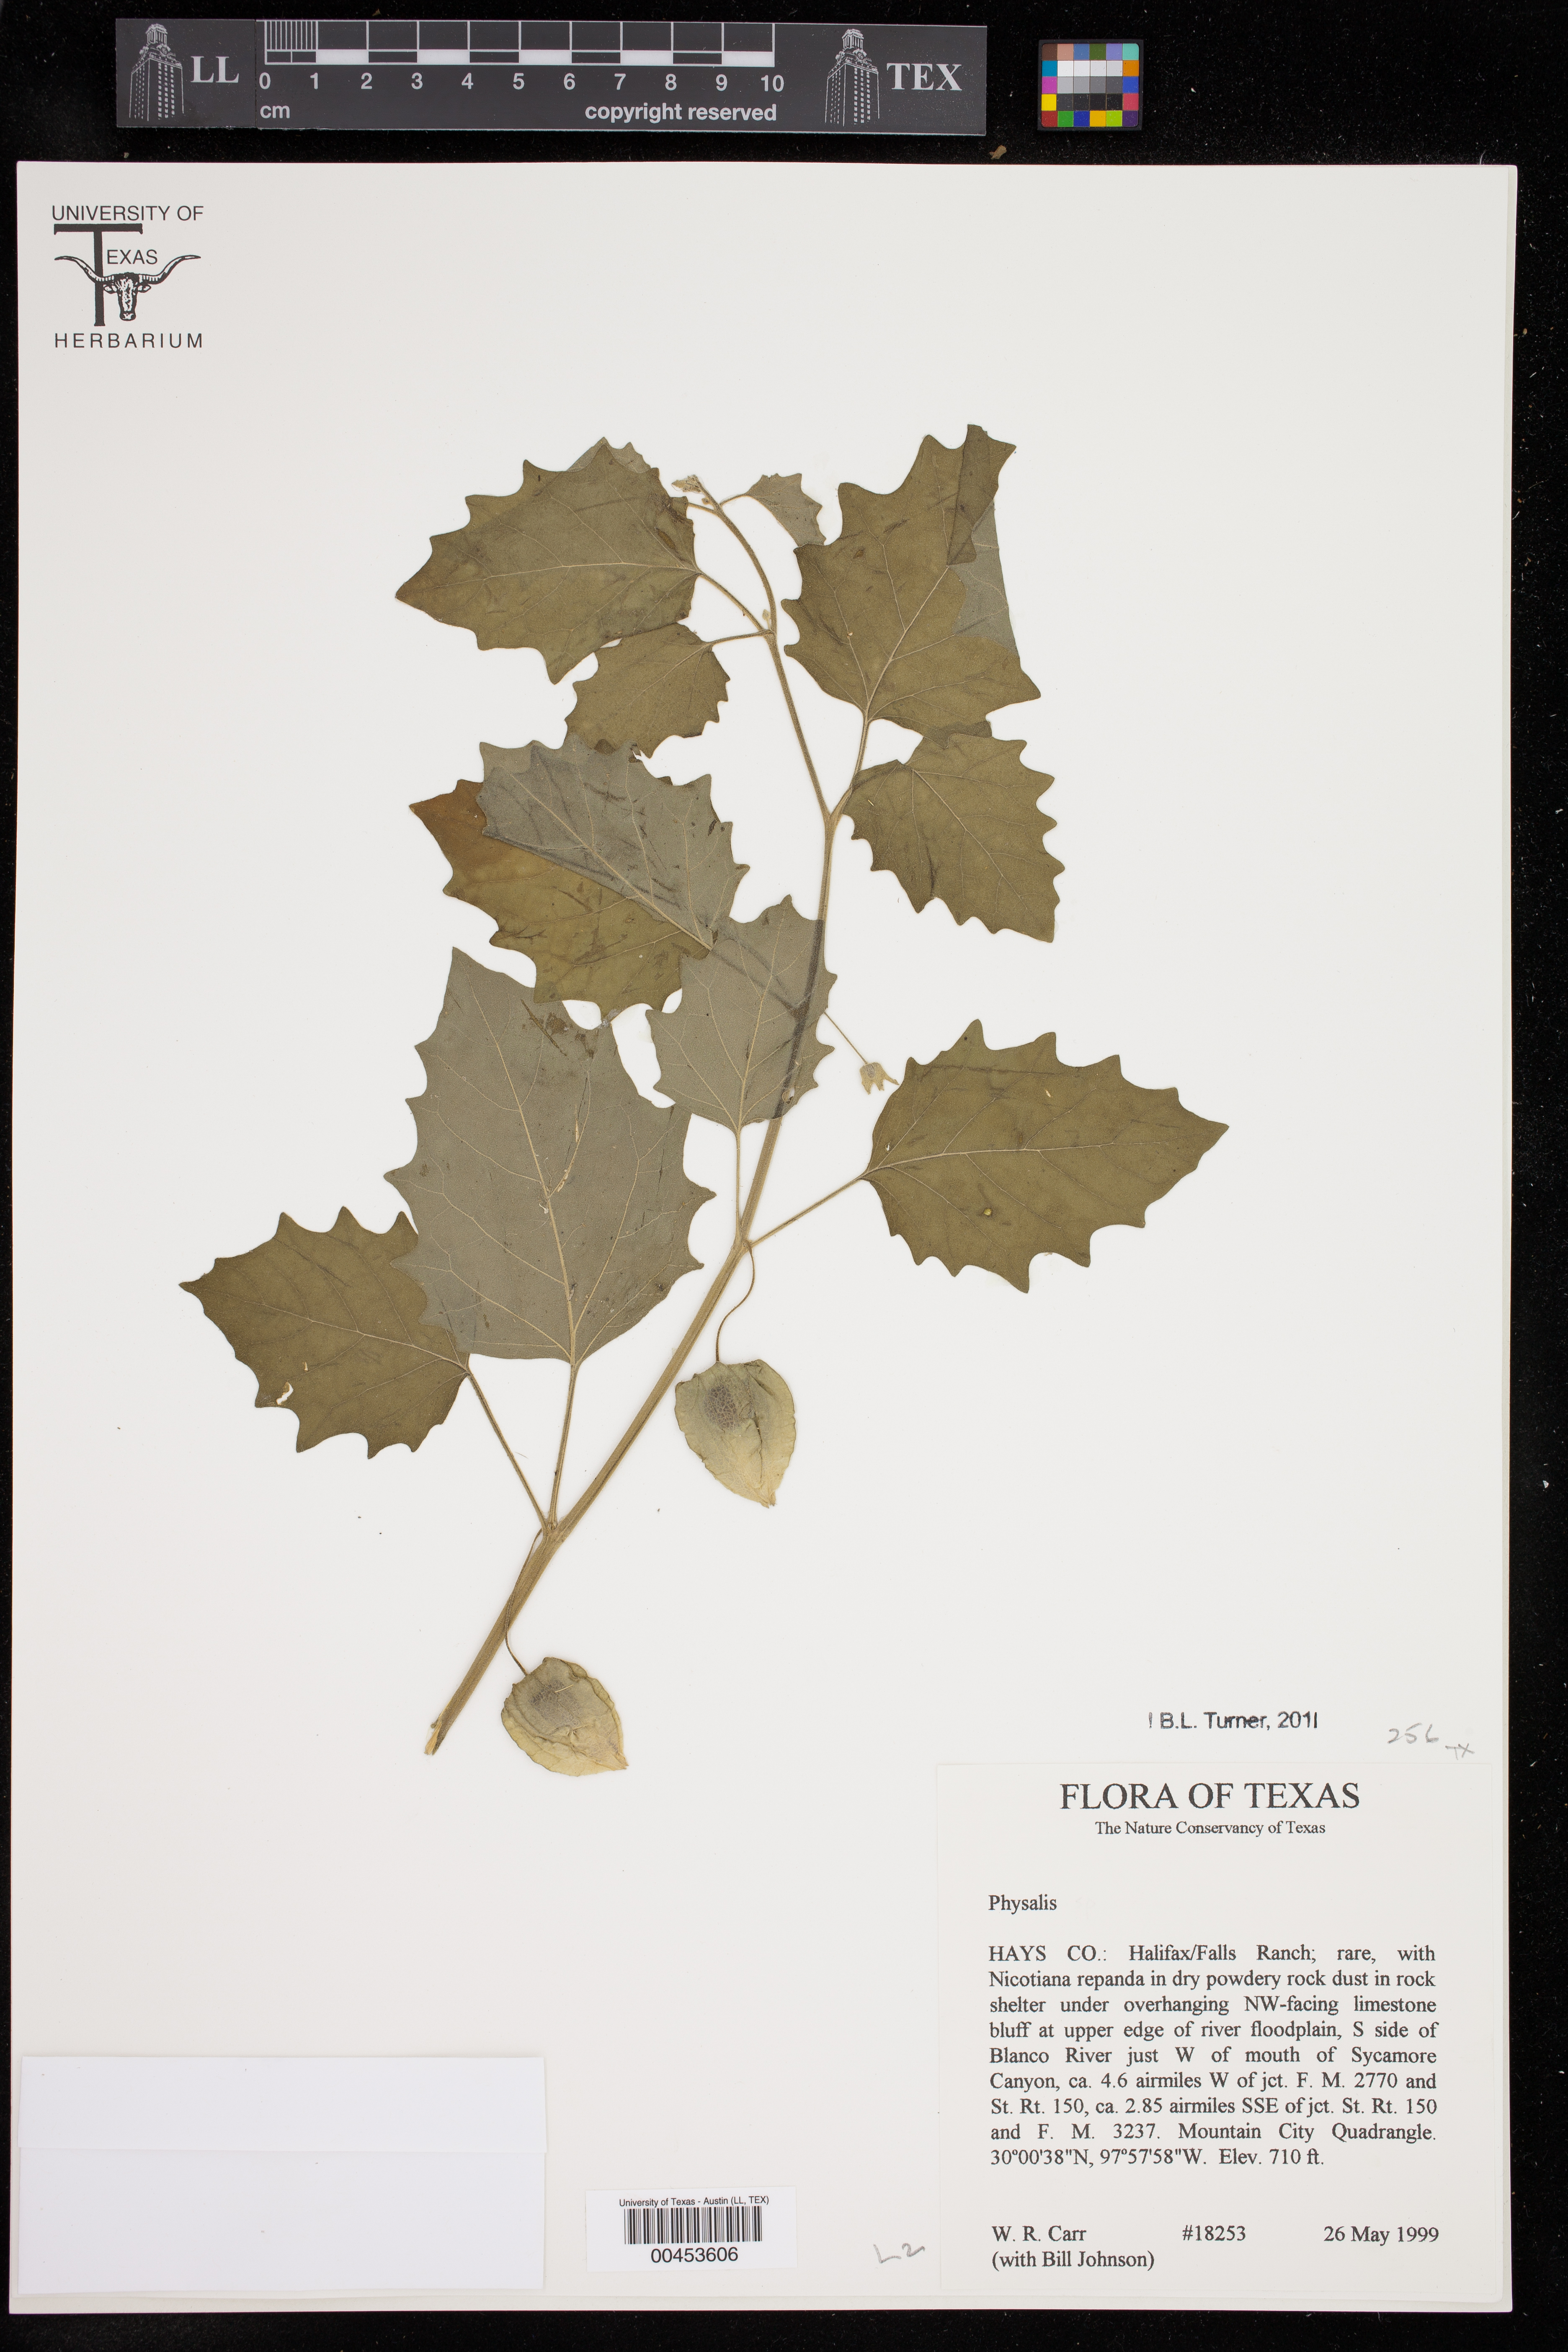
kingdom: Plantae
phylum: Tracheophyta
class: Magnoliopsida
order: Solanales
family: Solanaceae
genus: Physalis
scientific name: Physalis cinerascens
